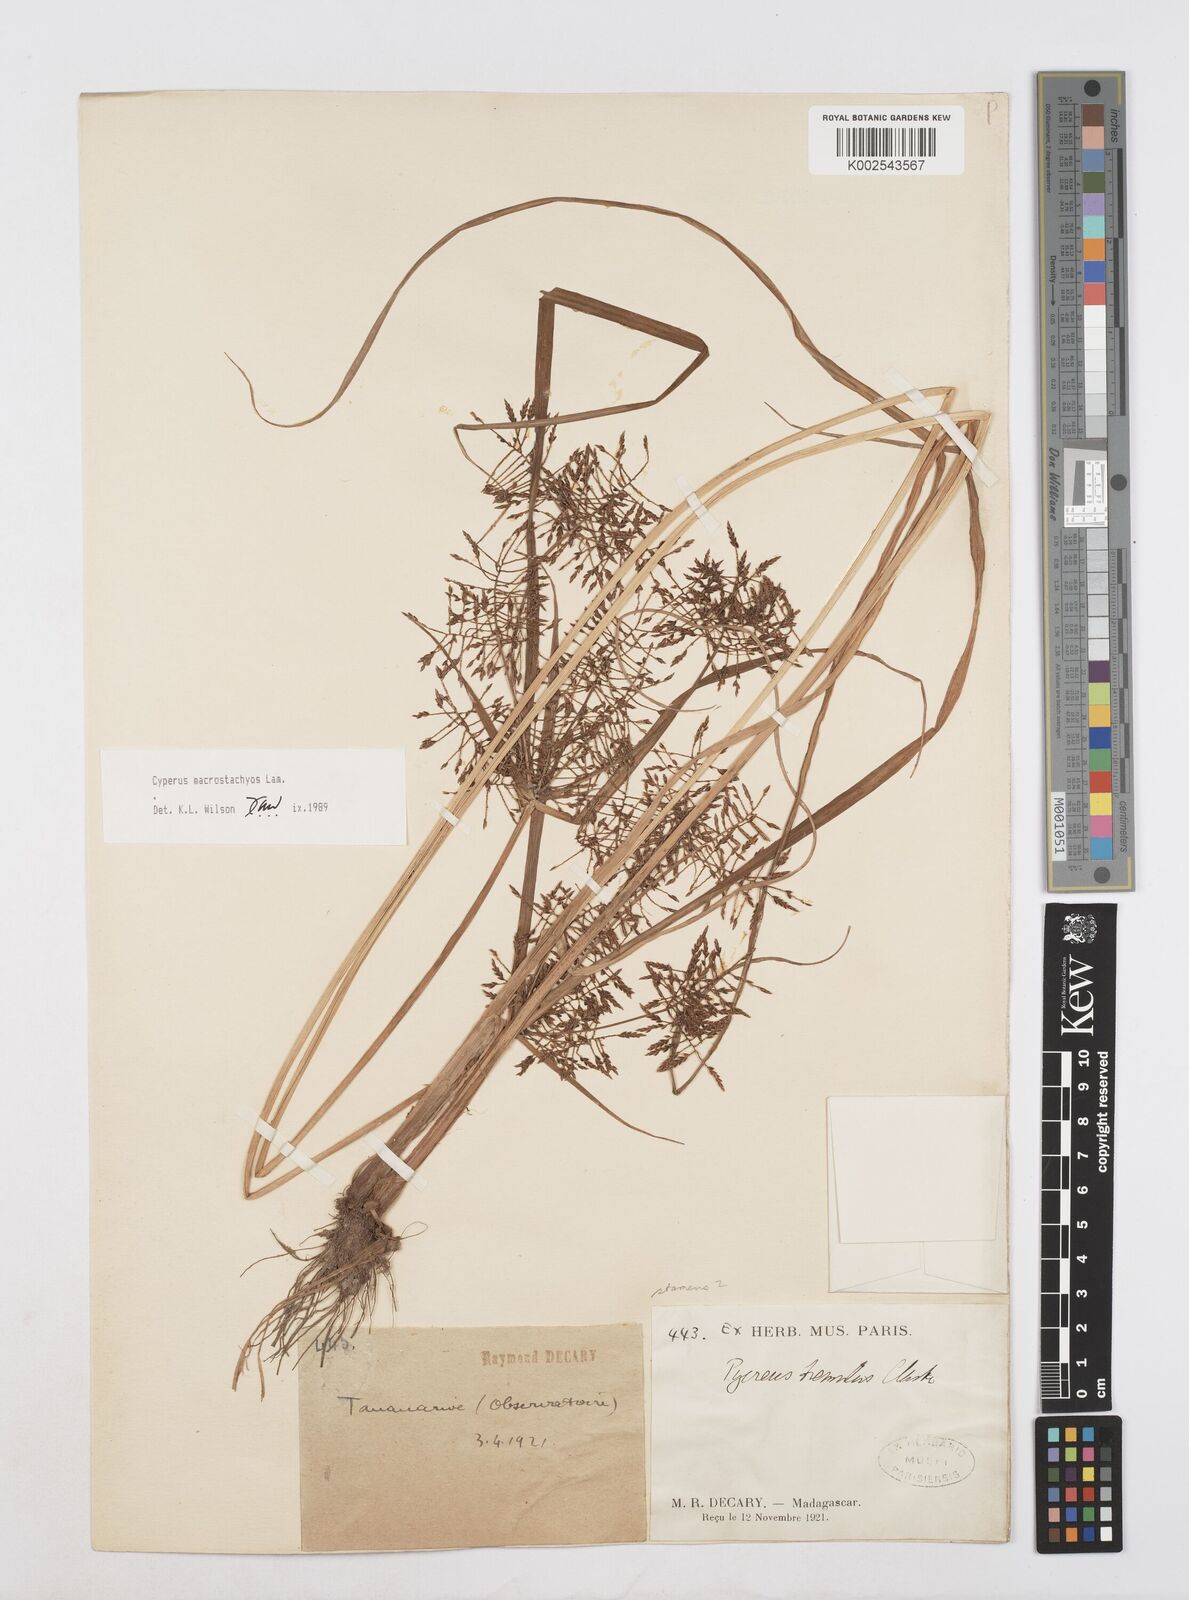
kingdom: Plantae
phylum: Tracheophyta
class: Liliopsida
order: Poales
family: Cyperaceae
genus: Cyperus
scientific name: Cyperus macrostachyos
